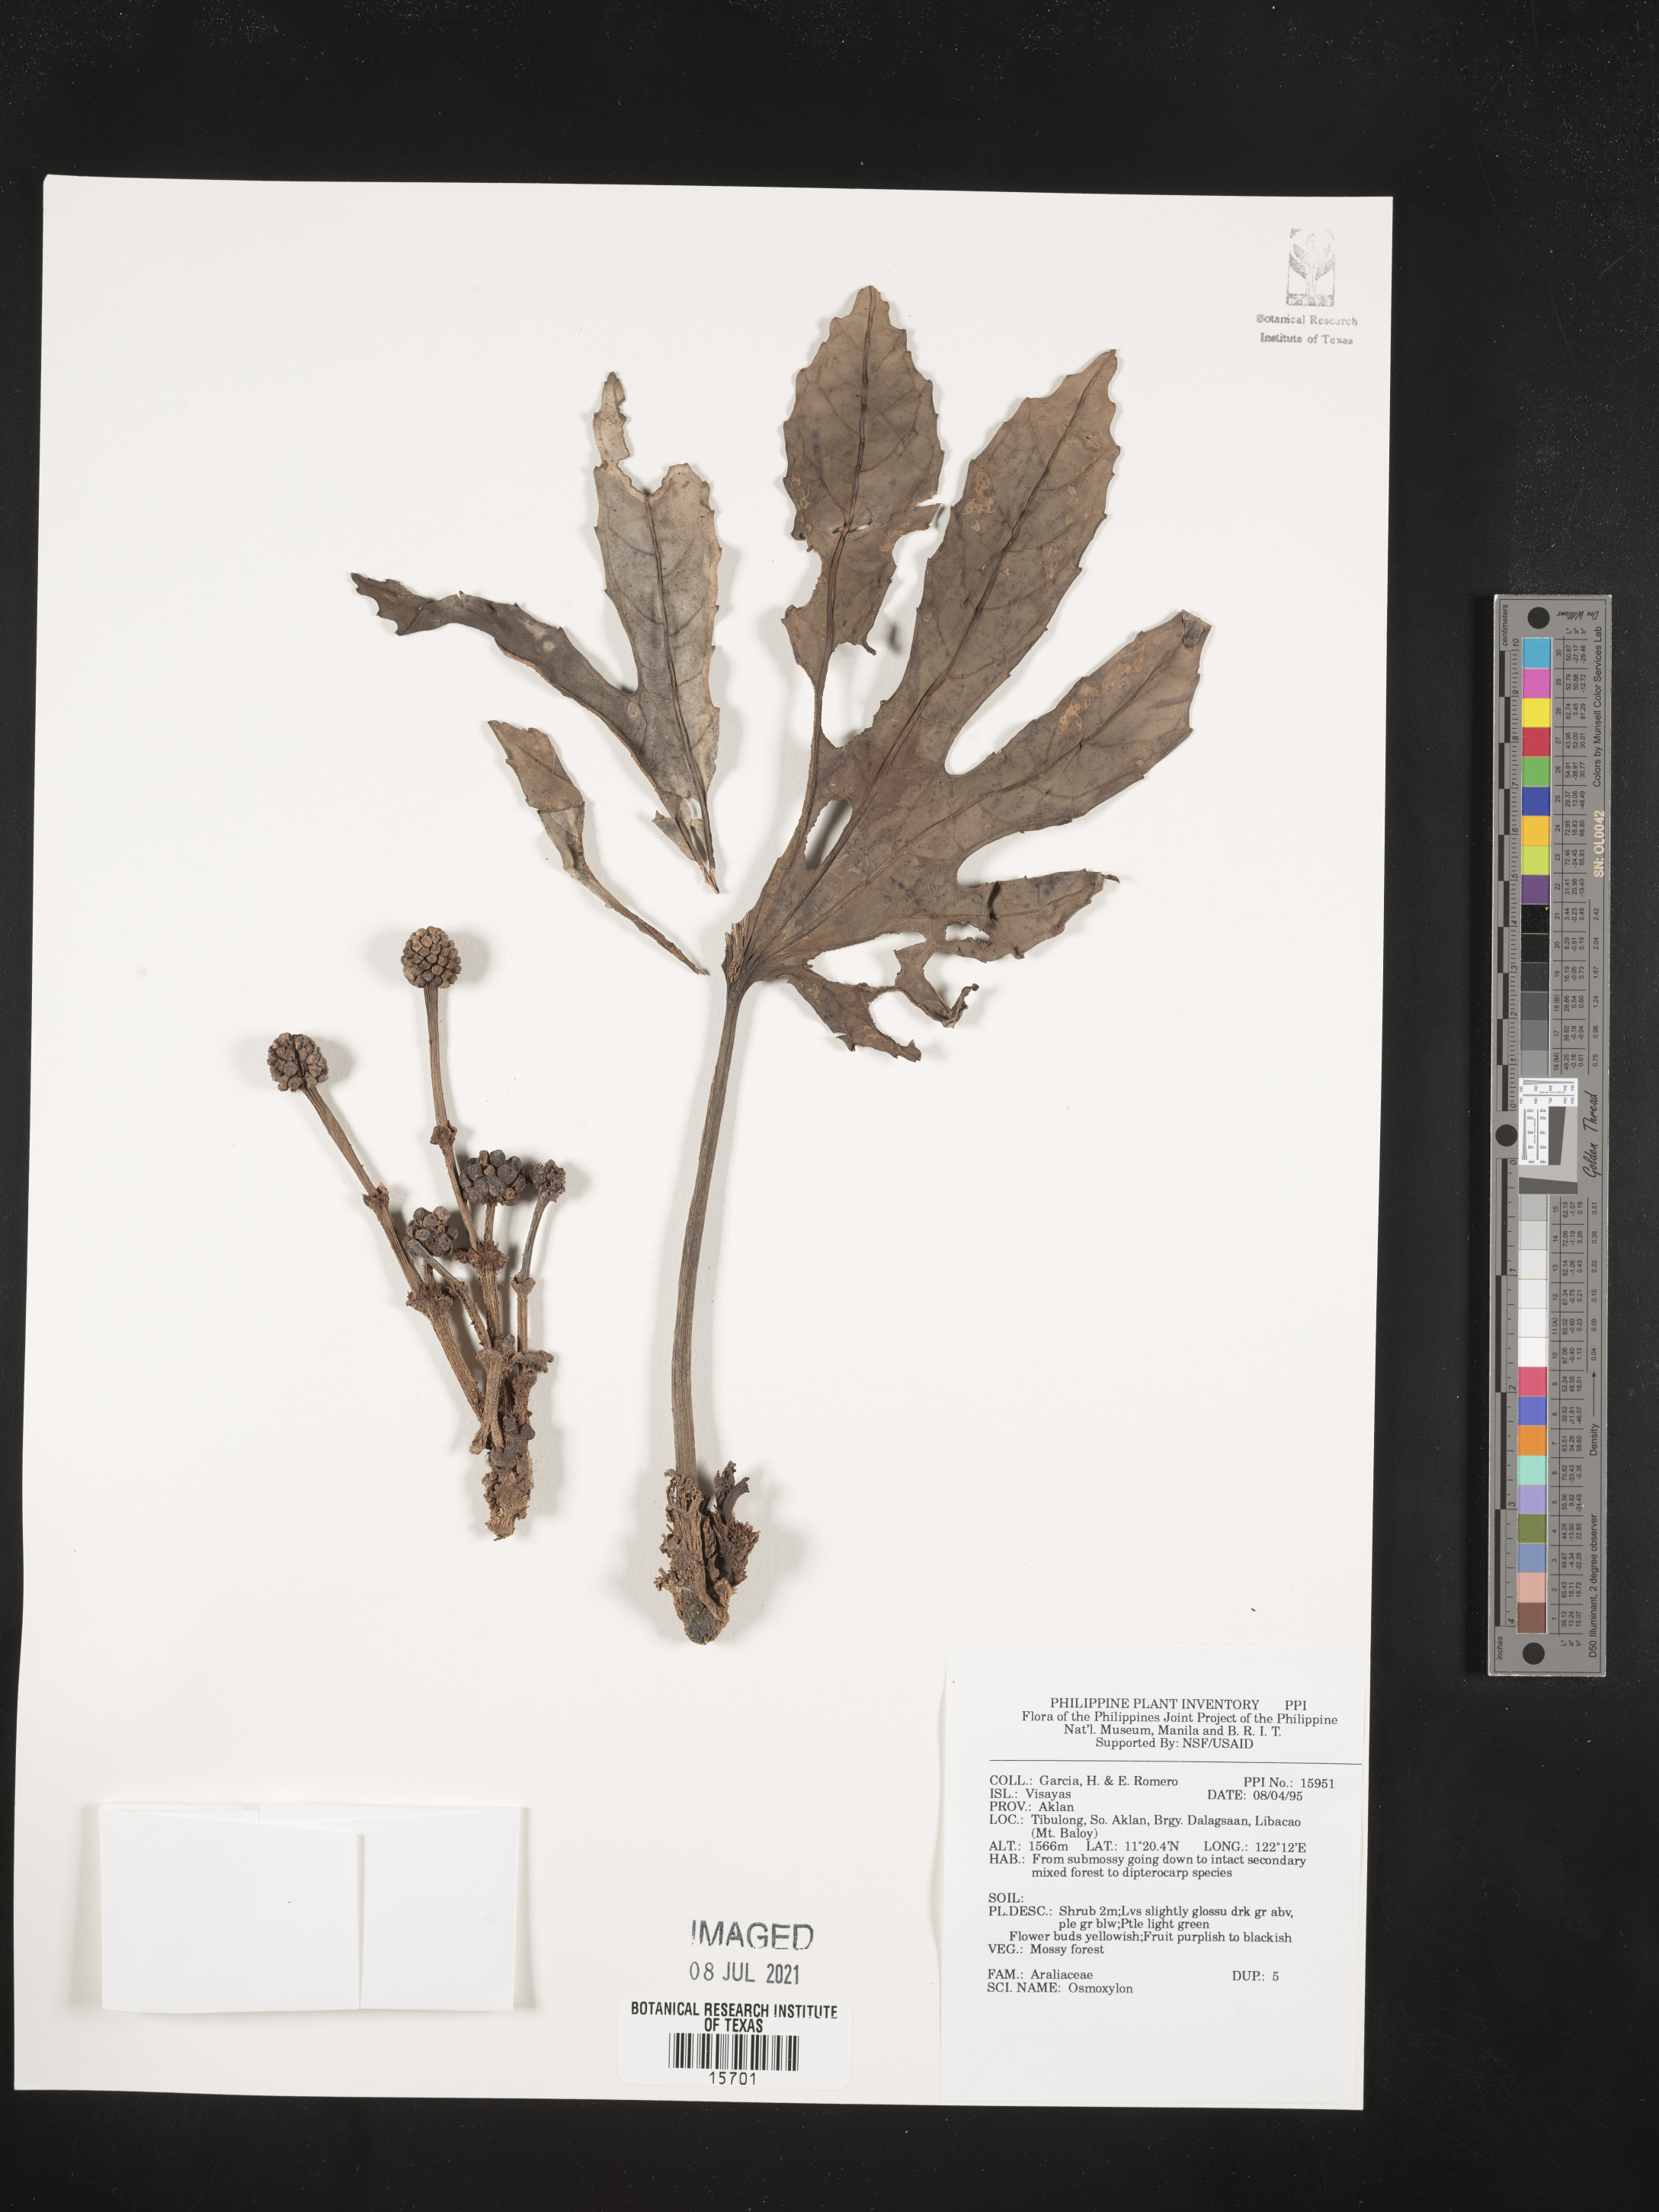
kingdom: Plantae
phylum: Tracheophyta
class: Magnoliopsida
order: Apiales
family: Araliaceae
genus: Osmoxylon
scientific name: Osmoxylon
